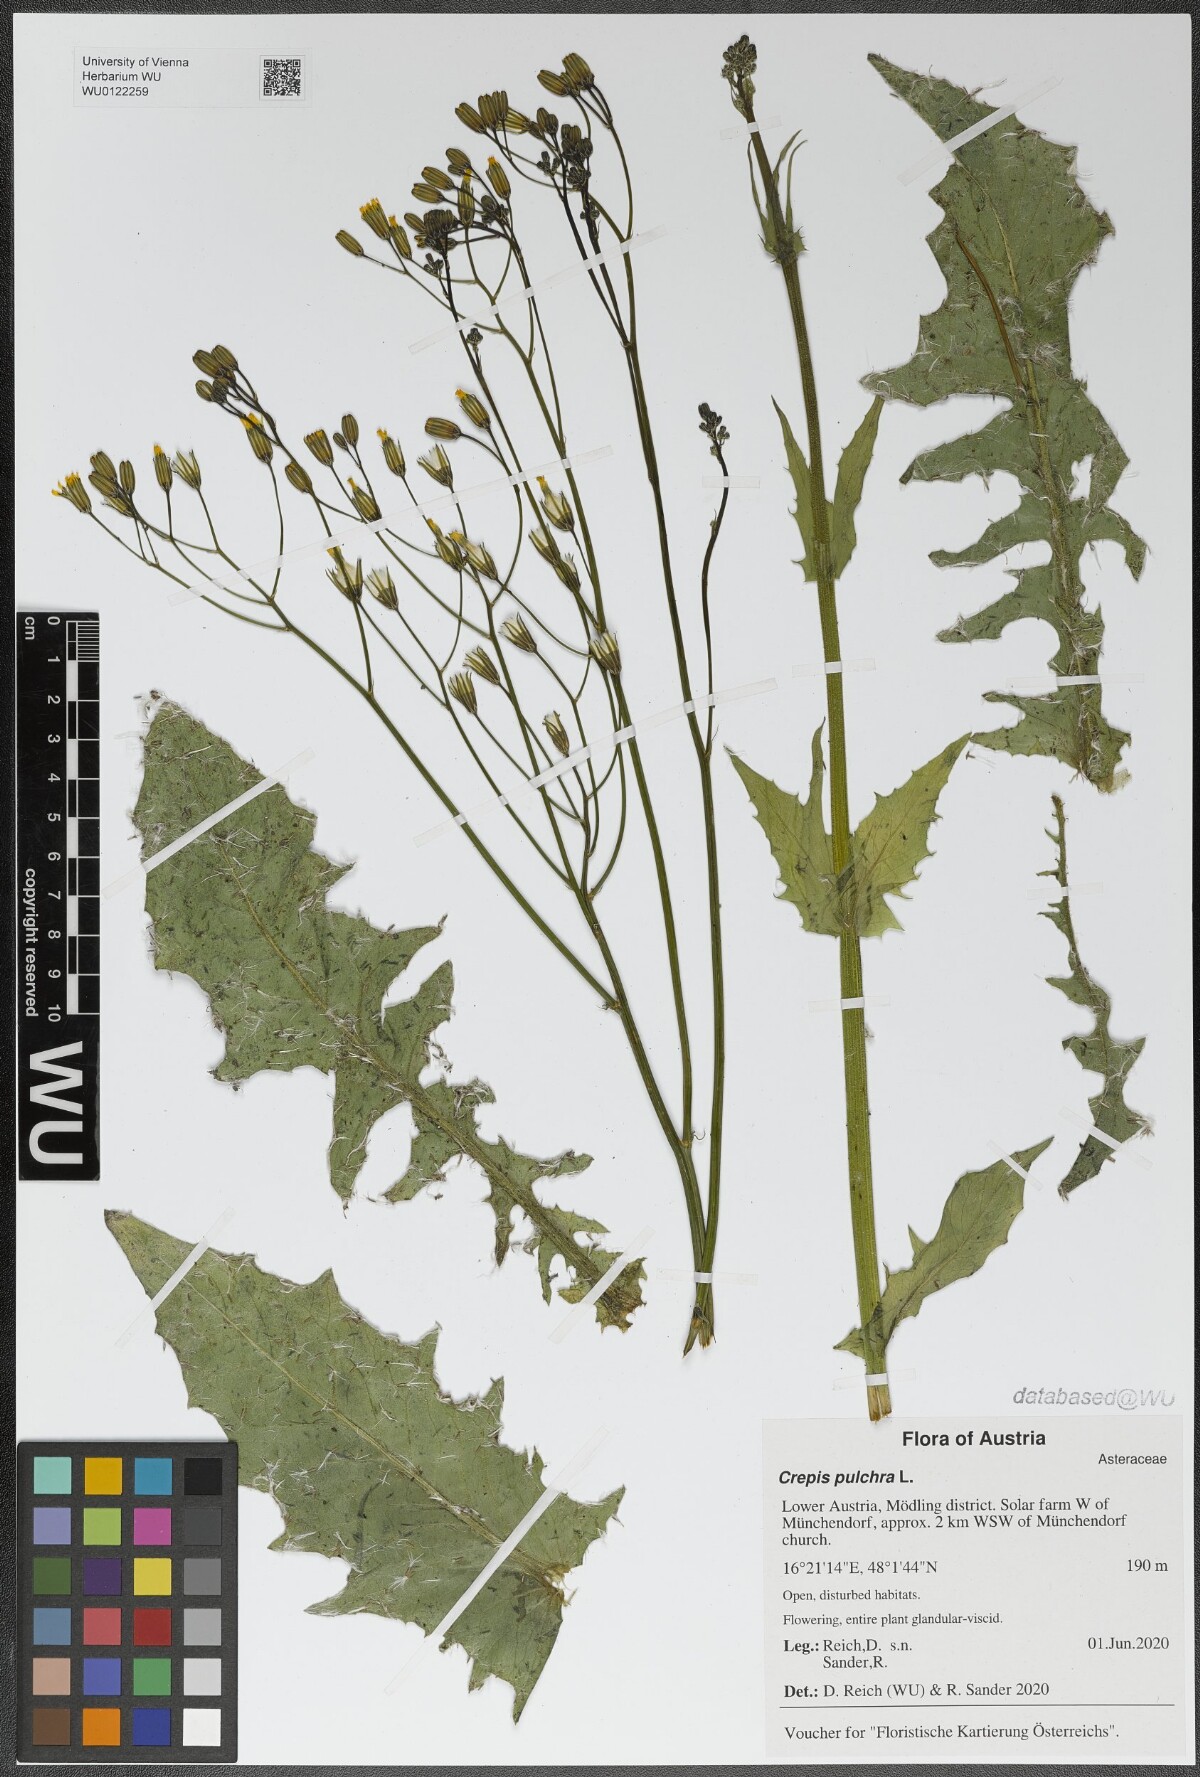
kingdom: Plantae
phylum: Tracheophyta
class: Magnoliopsida
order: Asterales
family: Asteraceae
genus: Crepis
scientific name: Crepis pulchra
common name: Hawk's-beard
